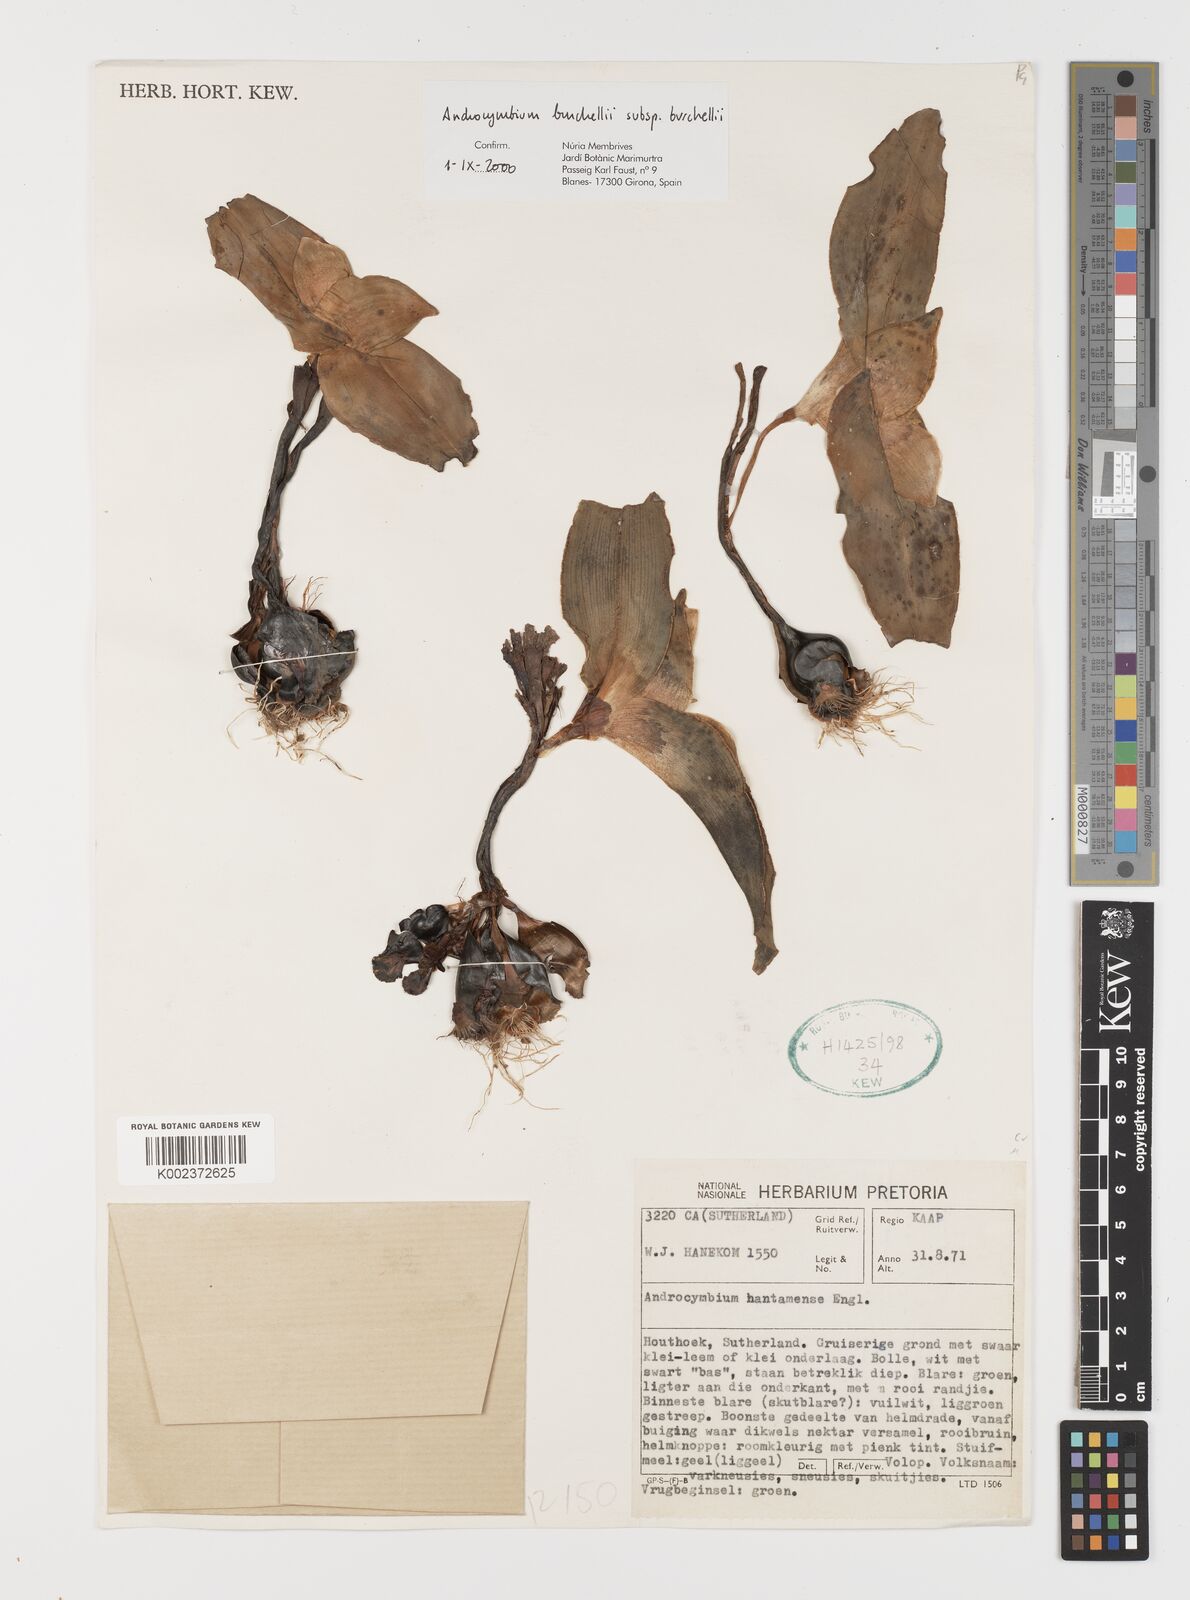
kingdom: Plantae
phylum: Tracheophyta
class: Liliopsida
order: Liliales
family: Colchicaceae
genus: Colchicum
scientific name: Colchicum burchellii
